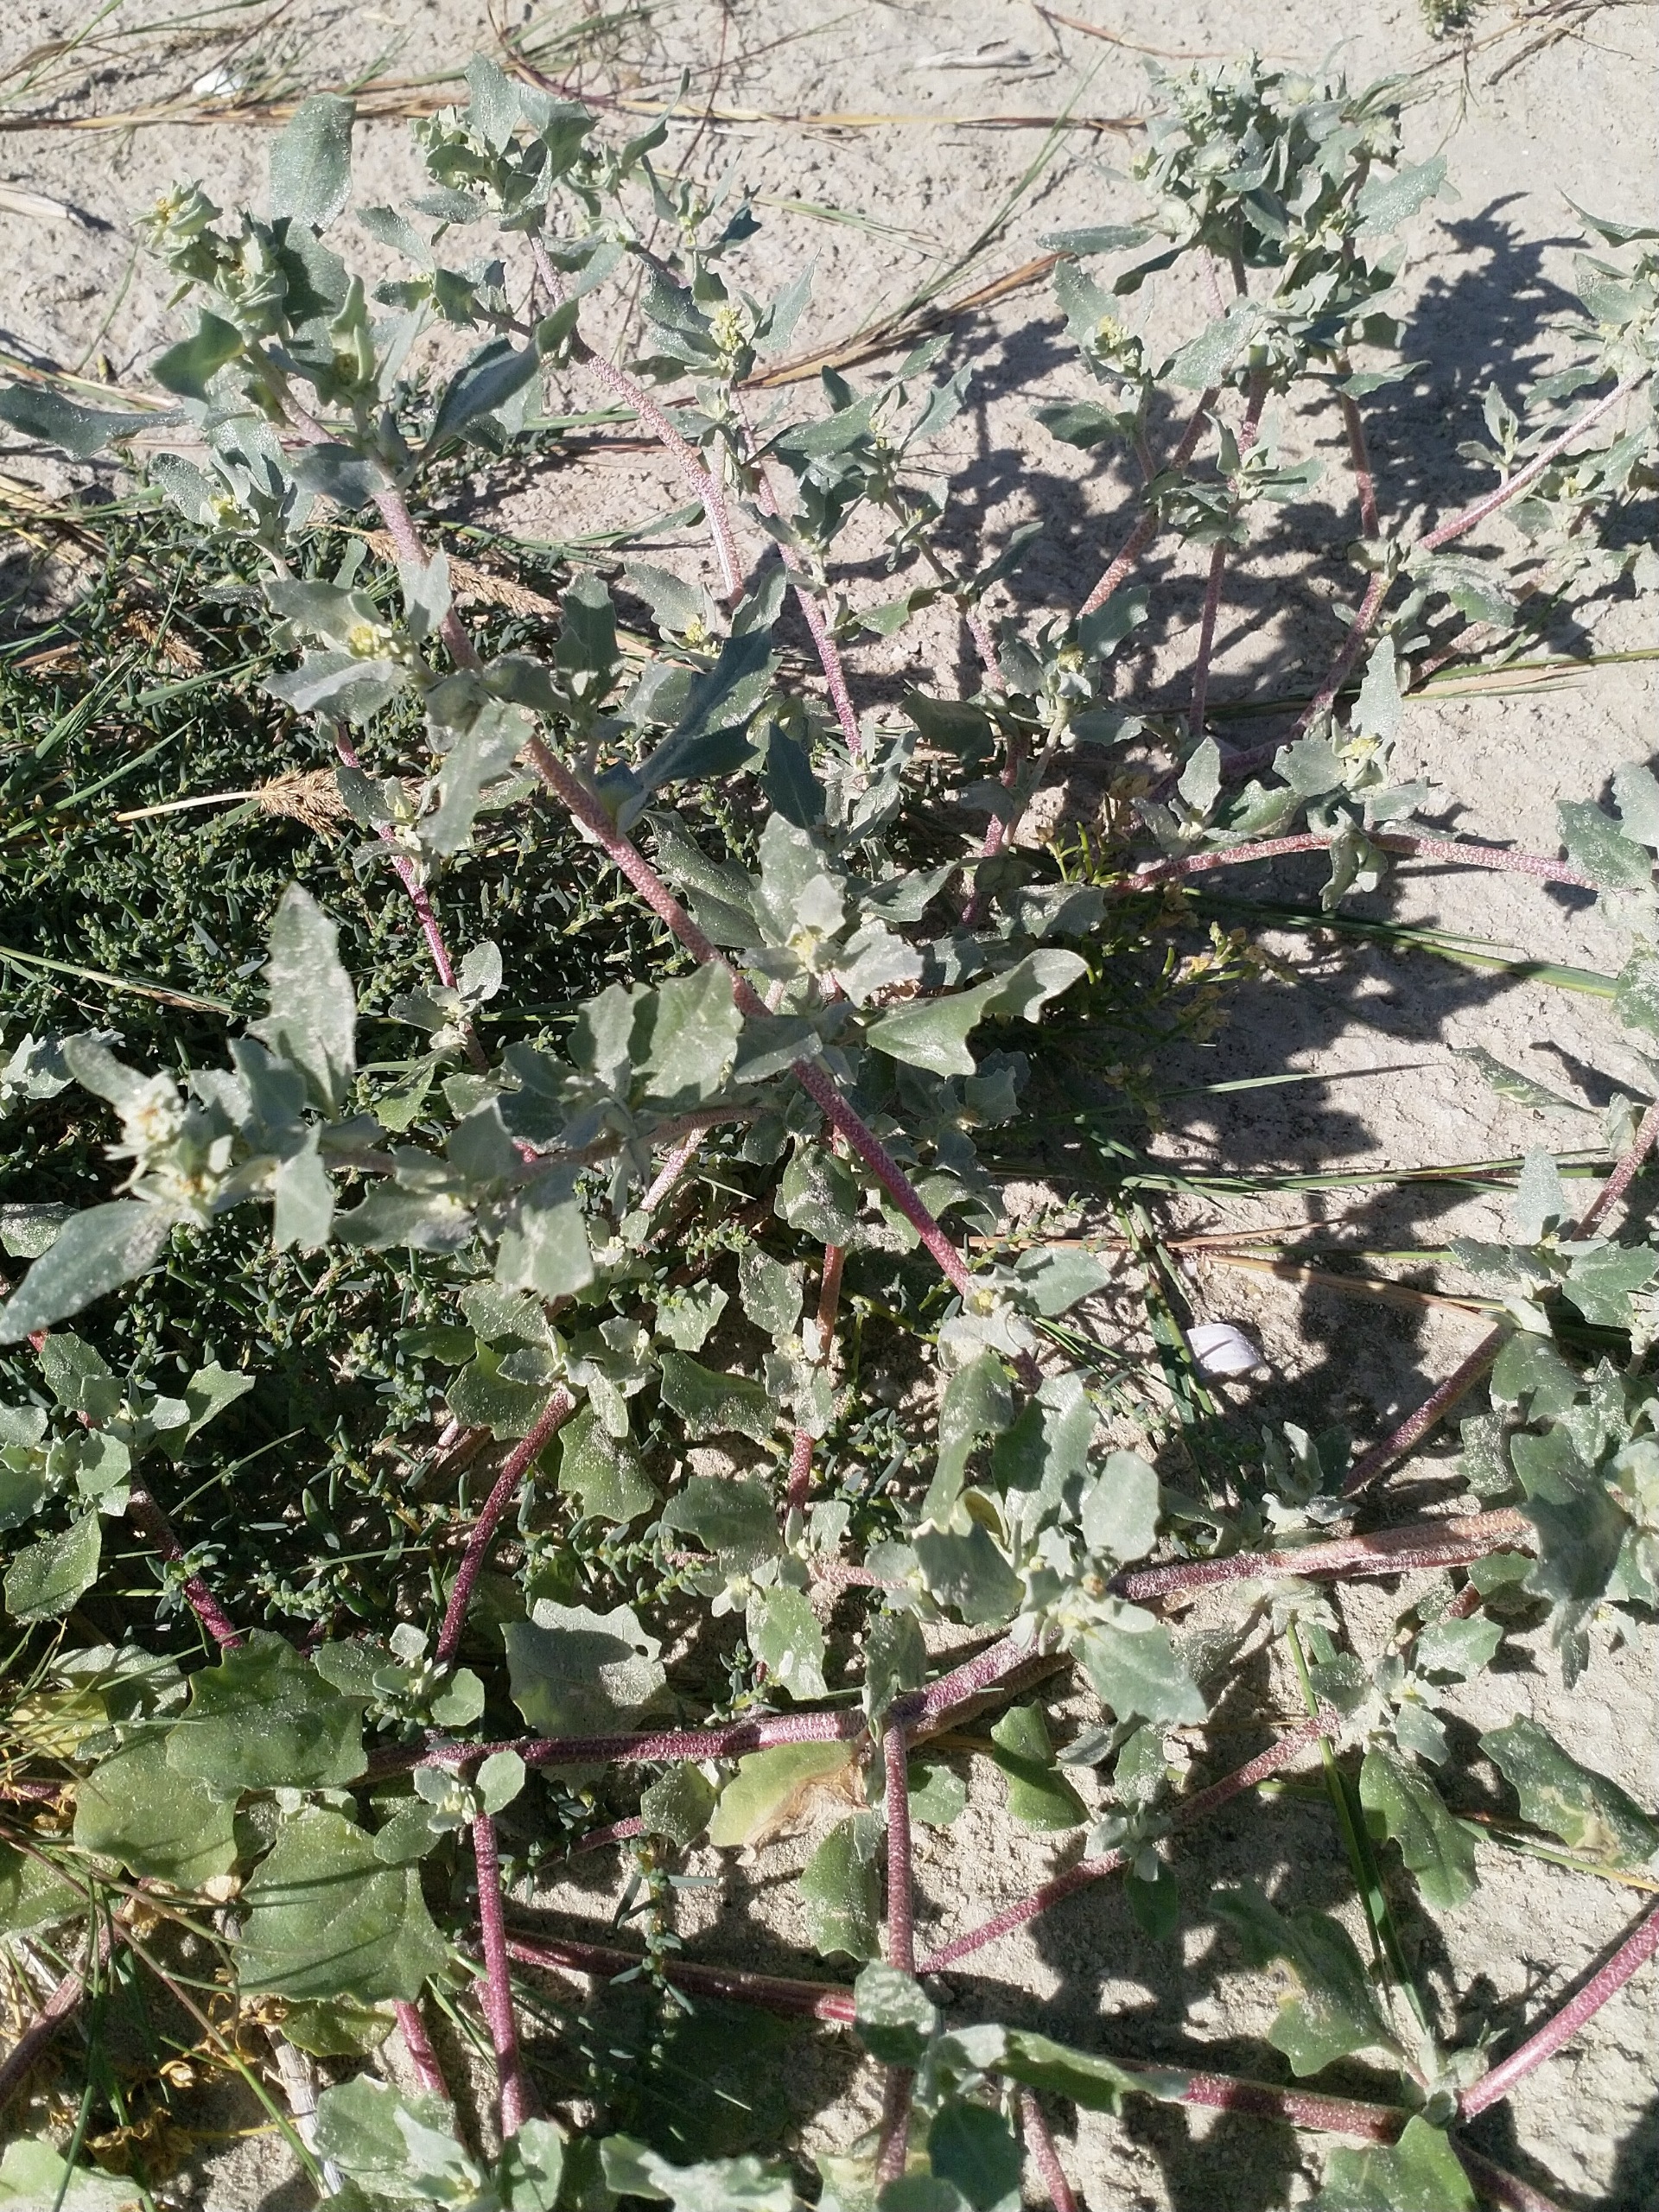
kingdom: Plantae
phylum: Tracheophyta
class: Magnoliopsida
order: Caryophyllales
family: Amaranthaceae
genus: Atriplex
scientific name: Atriplex laciniata
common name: Sølv-mælde
